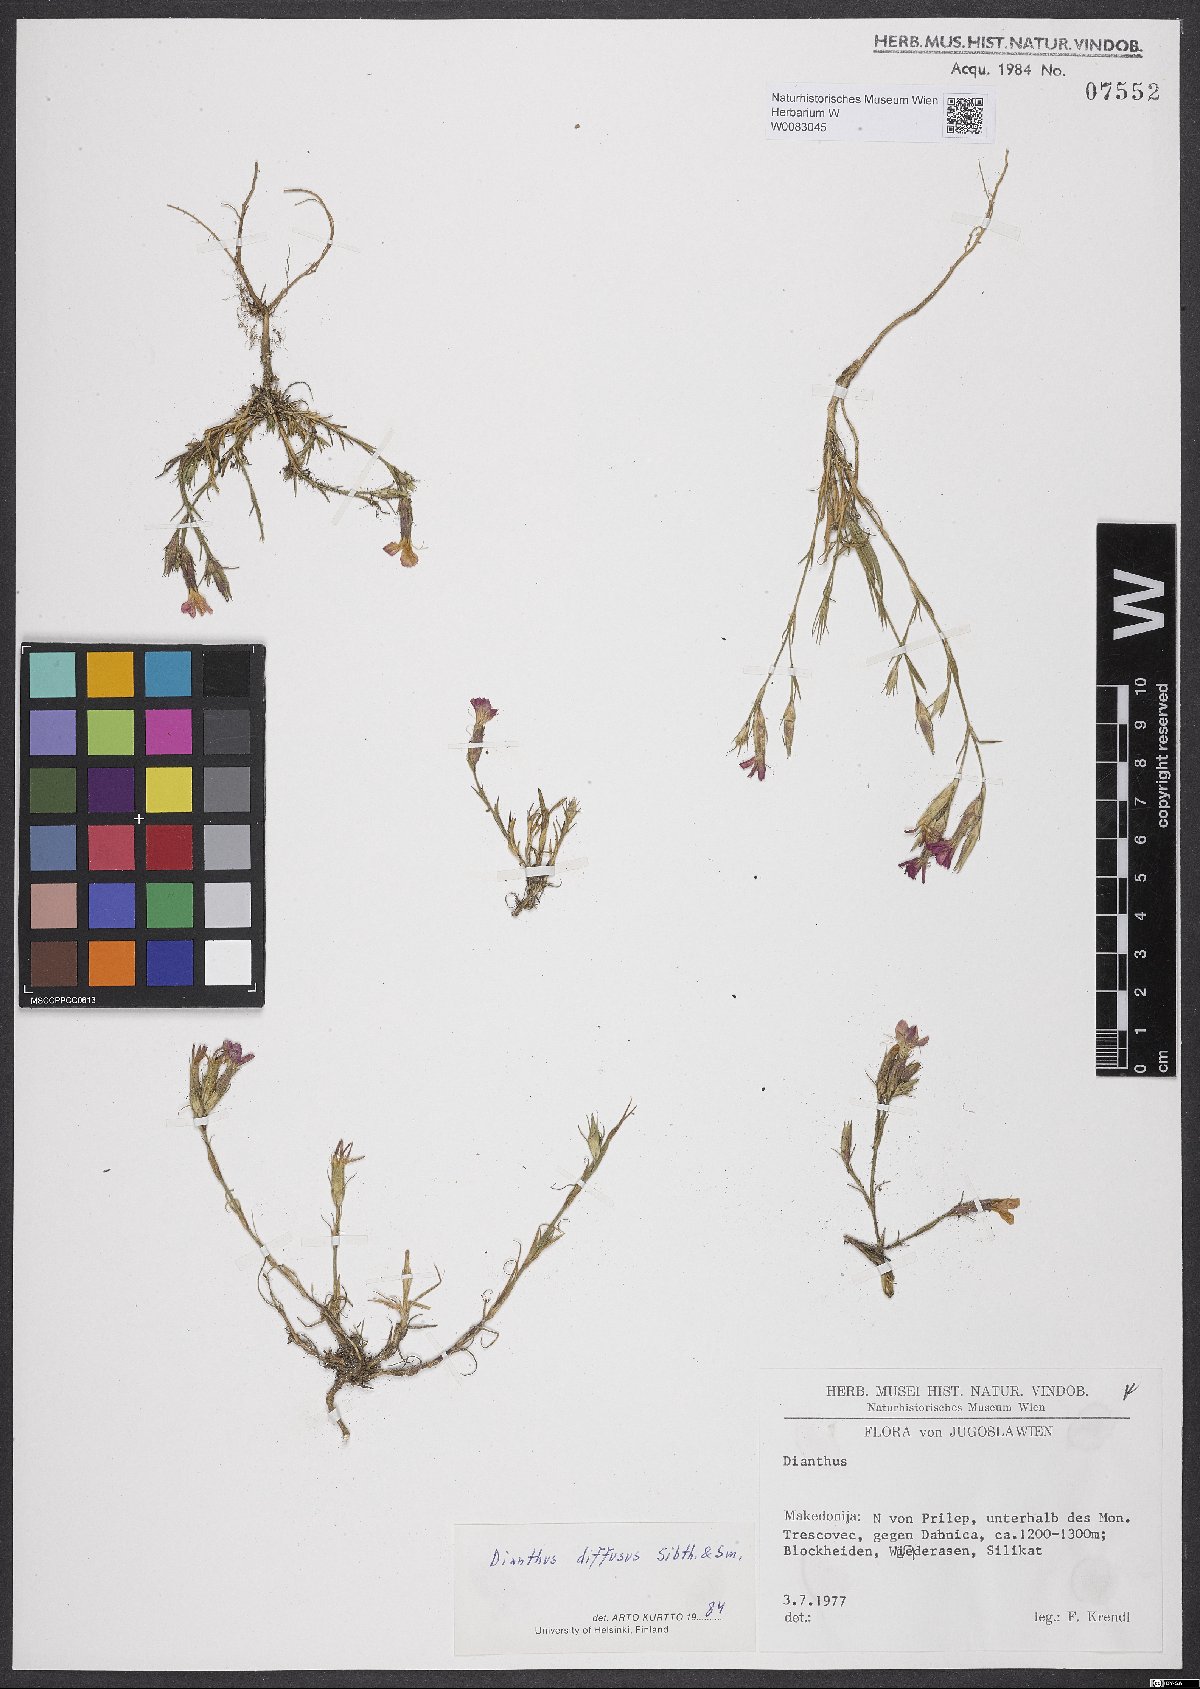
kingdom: Plantae
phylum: Tracheophyta
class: Magnoliopsida
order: Caryophyllales
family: Caryophyllaceae
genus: Dianthus
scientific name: Dianthus diffusus
